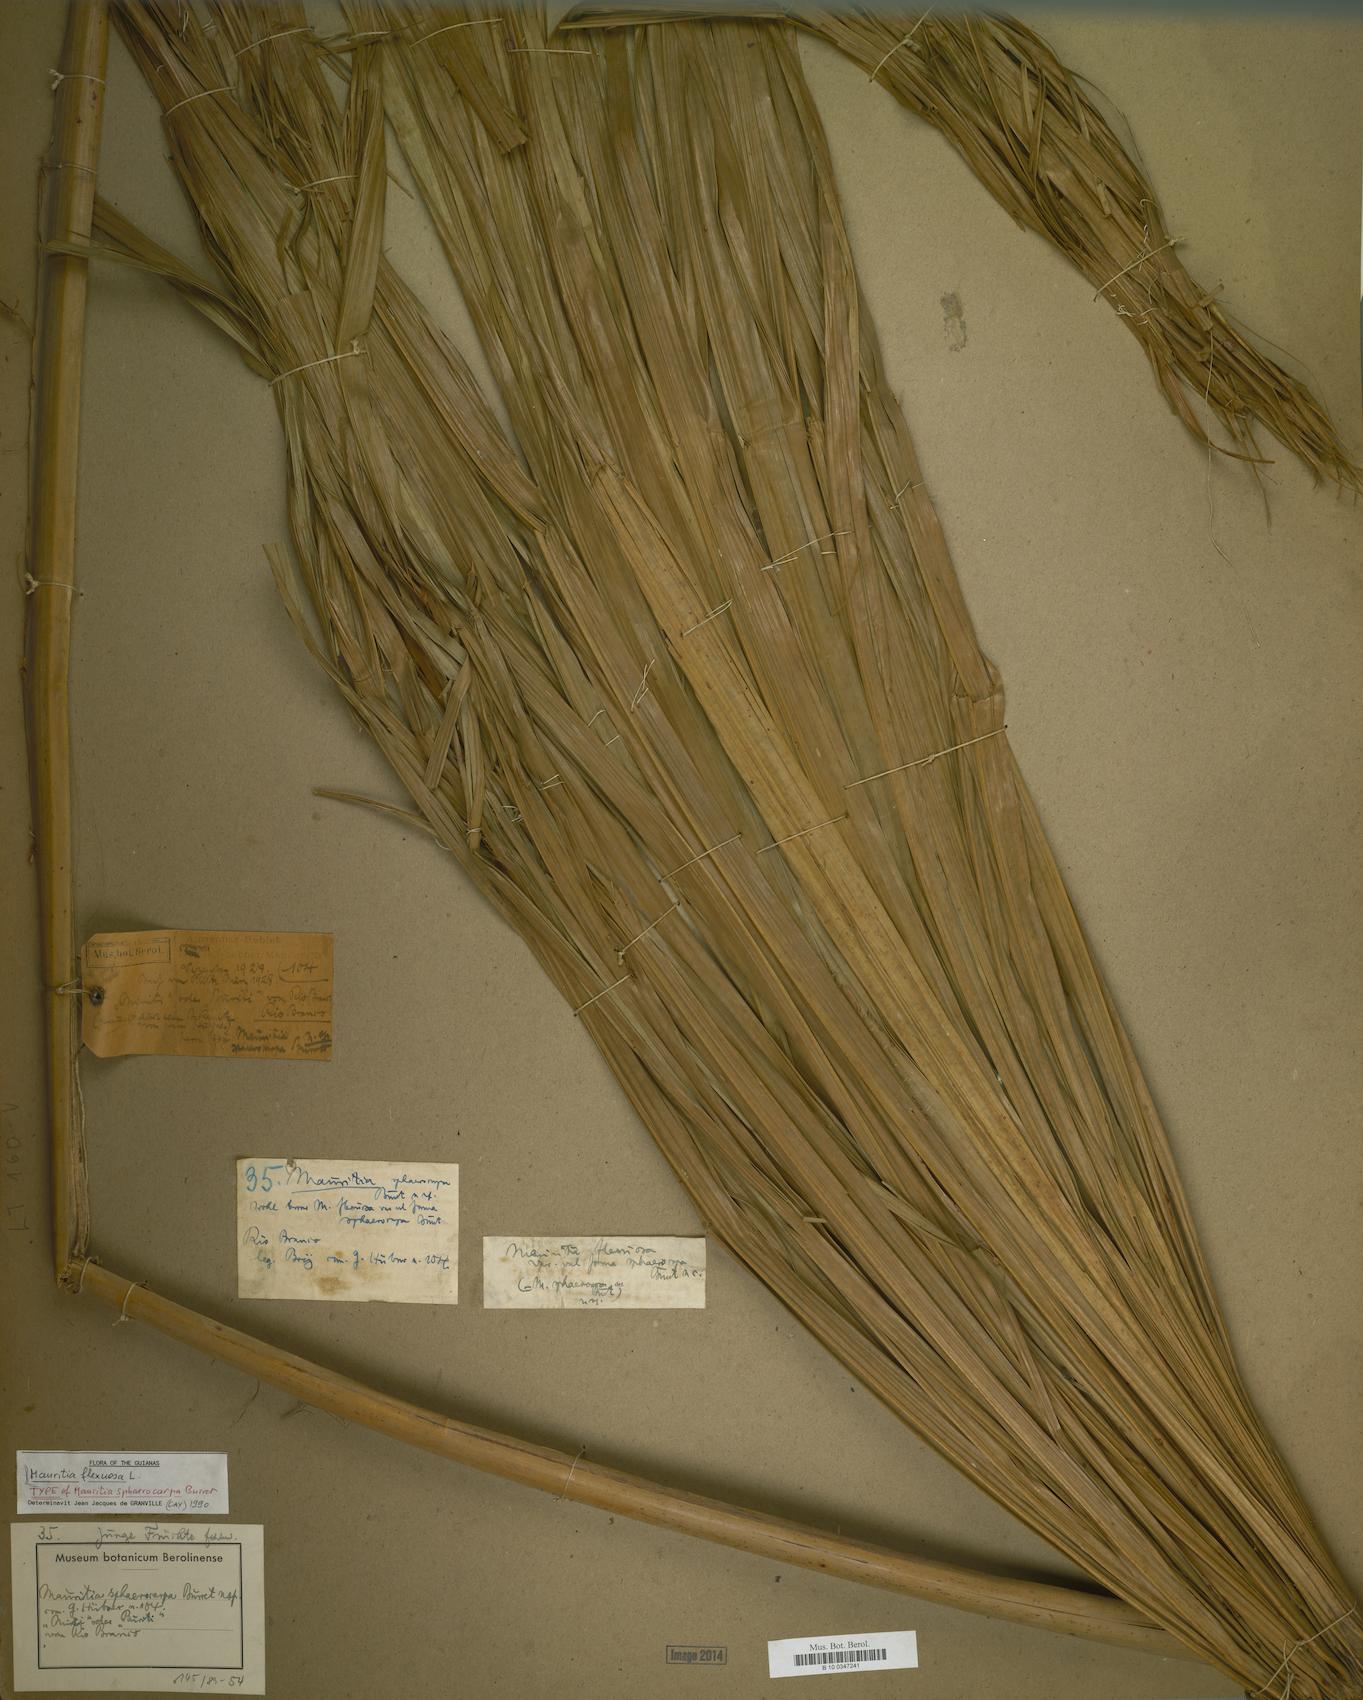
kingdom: Plantae
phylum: Tracheophyta
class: Liliopsida
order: Arecales
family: Arecaceae
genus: Mauritia
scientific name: Mauritia flexuosa
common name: Tree-of-life
